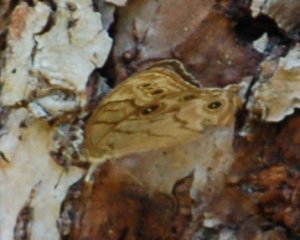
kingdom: Animalia
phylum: Arthropoda
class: Insecta
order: Lepidoptera
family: Nymphalidae
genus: Lethe
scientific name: Lethe eurydice
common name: Eyed Brown
